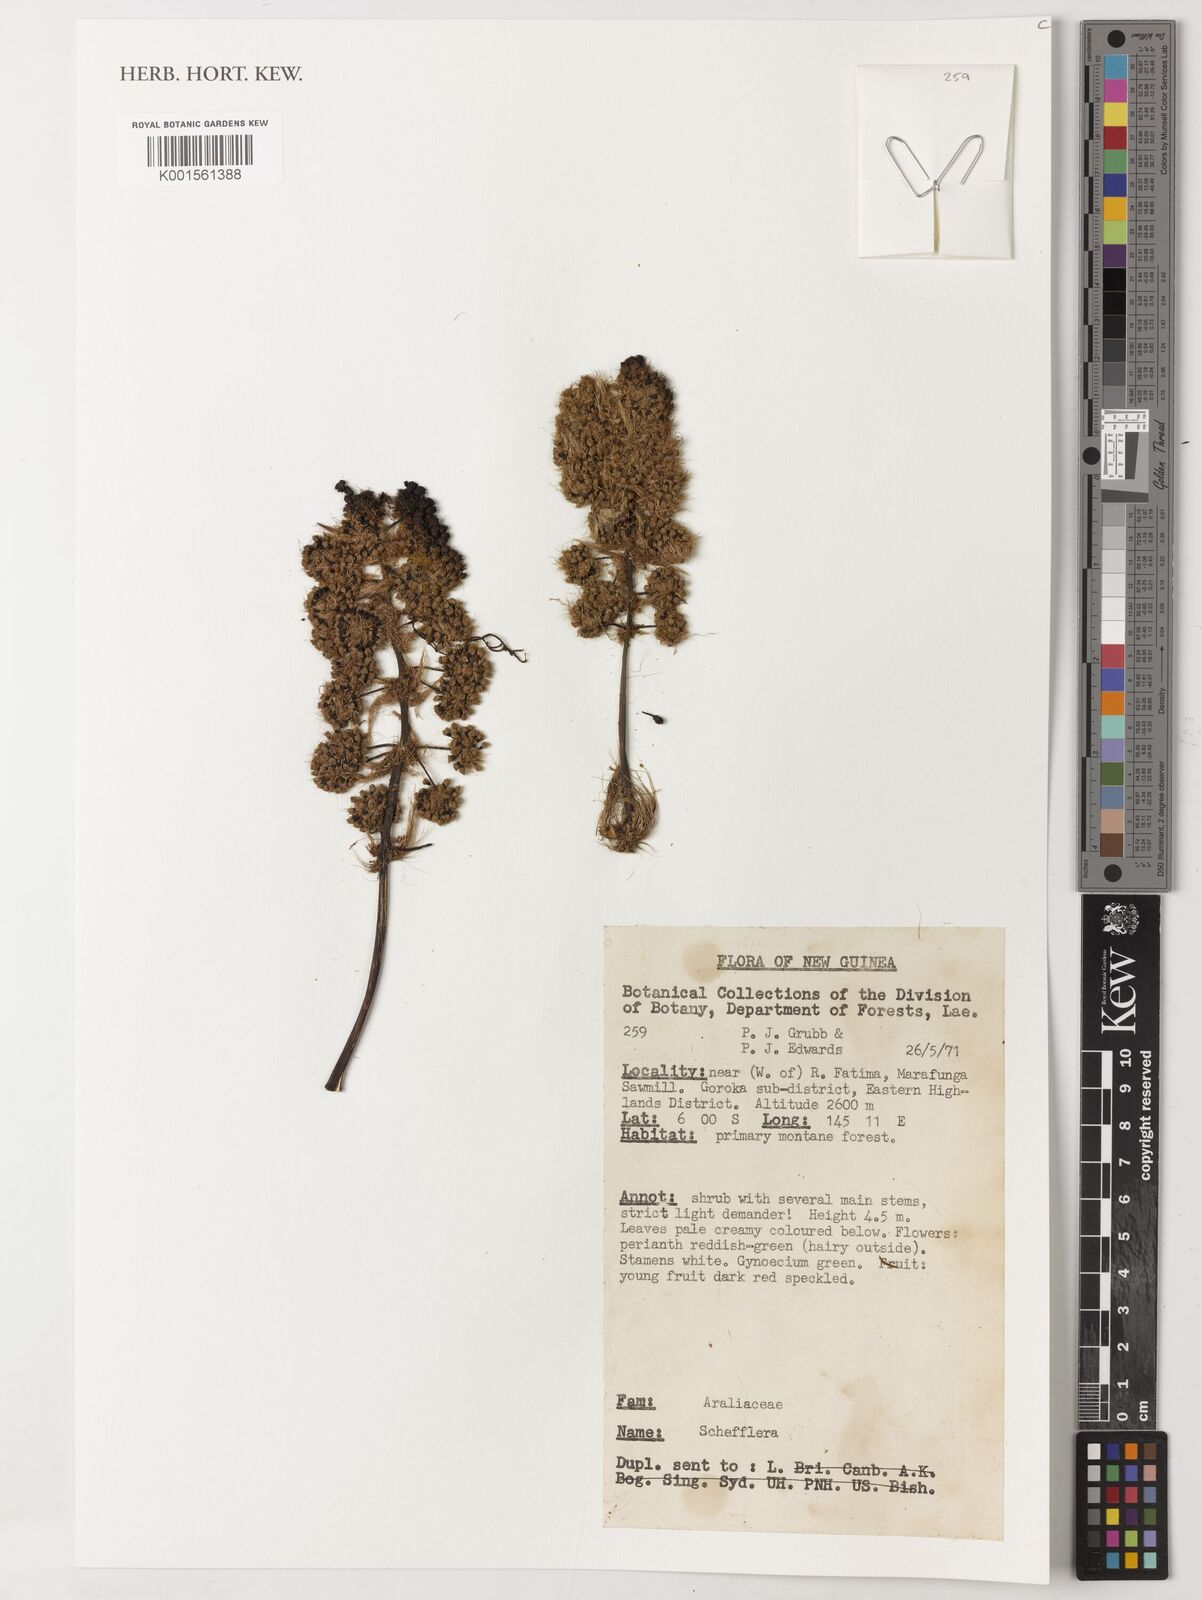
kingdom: Plantae
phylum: Tracheophyta
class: Magnoliopsida
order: Apiales
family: Araliaceae
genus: Schefflera
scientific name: Schefflera
